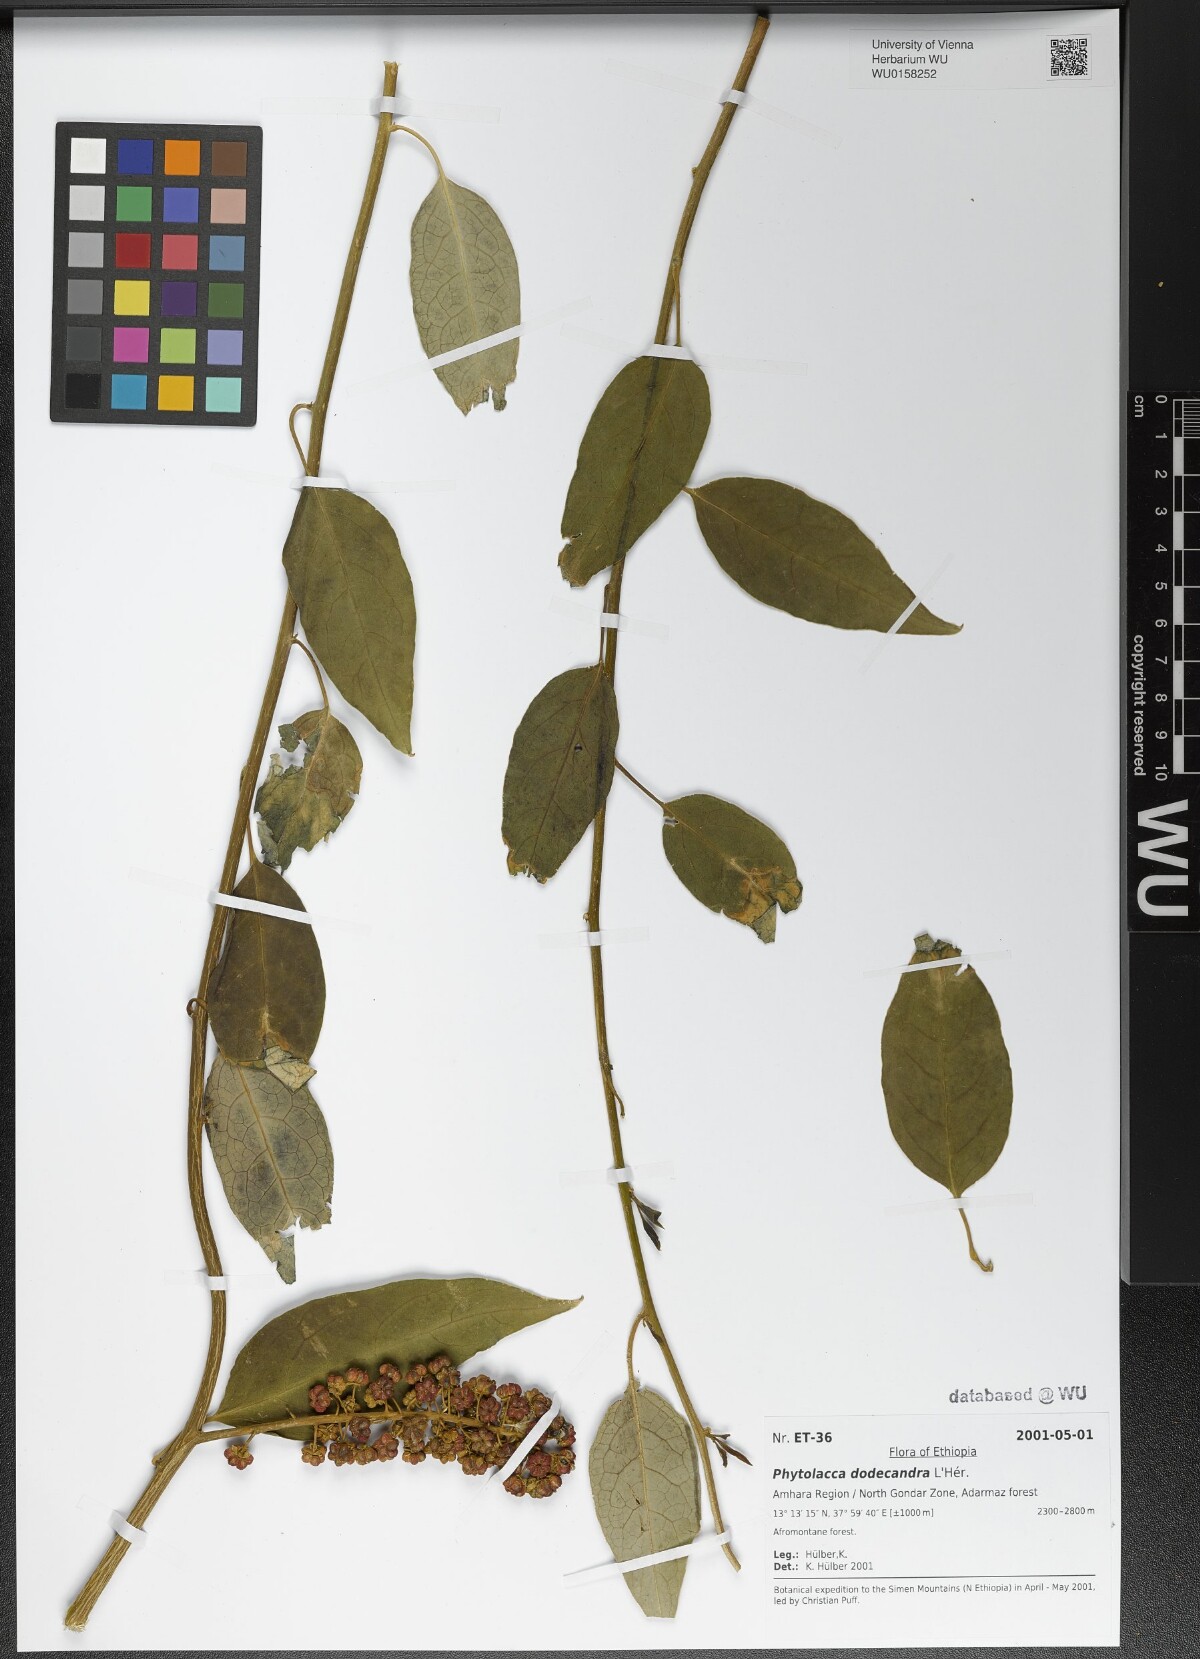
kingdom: Plantae
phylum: Tracheophyta
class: Magnoliopsida
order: Caryophyllales
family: Phytolaccaceae
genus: Phytolacca
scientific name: Phytolacca dodecandra
